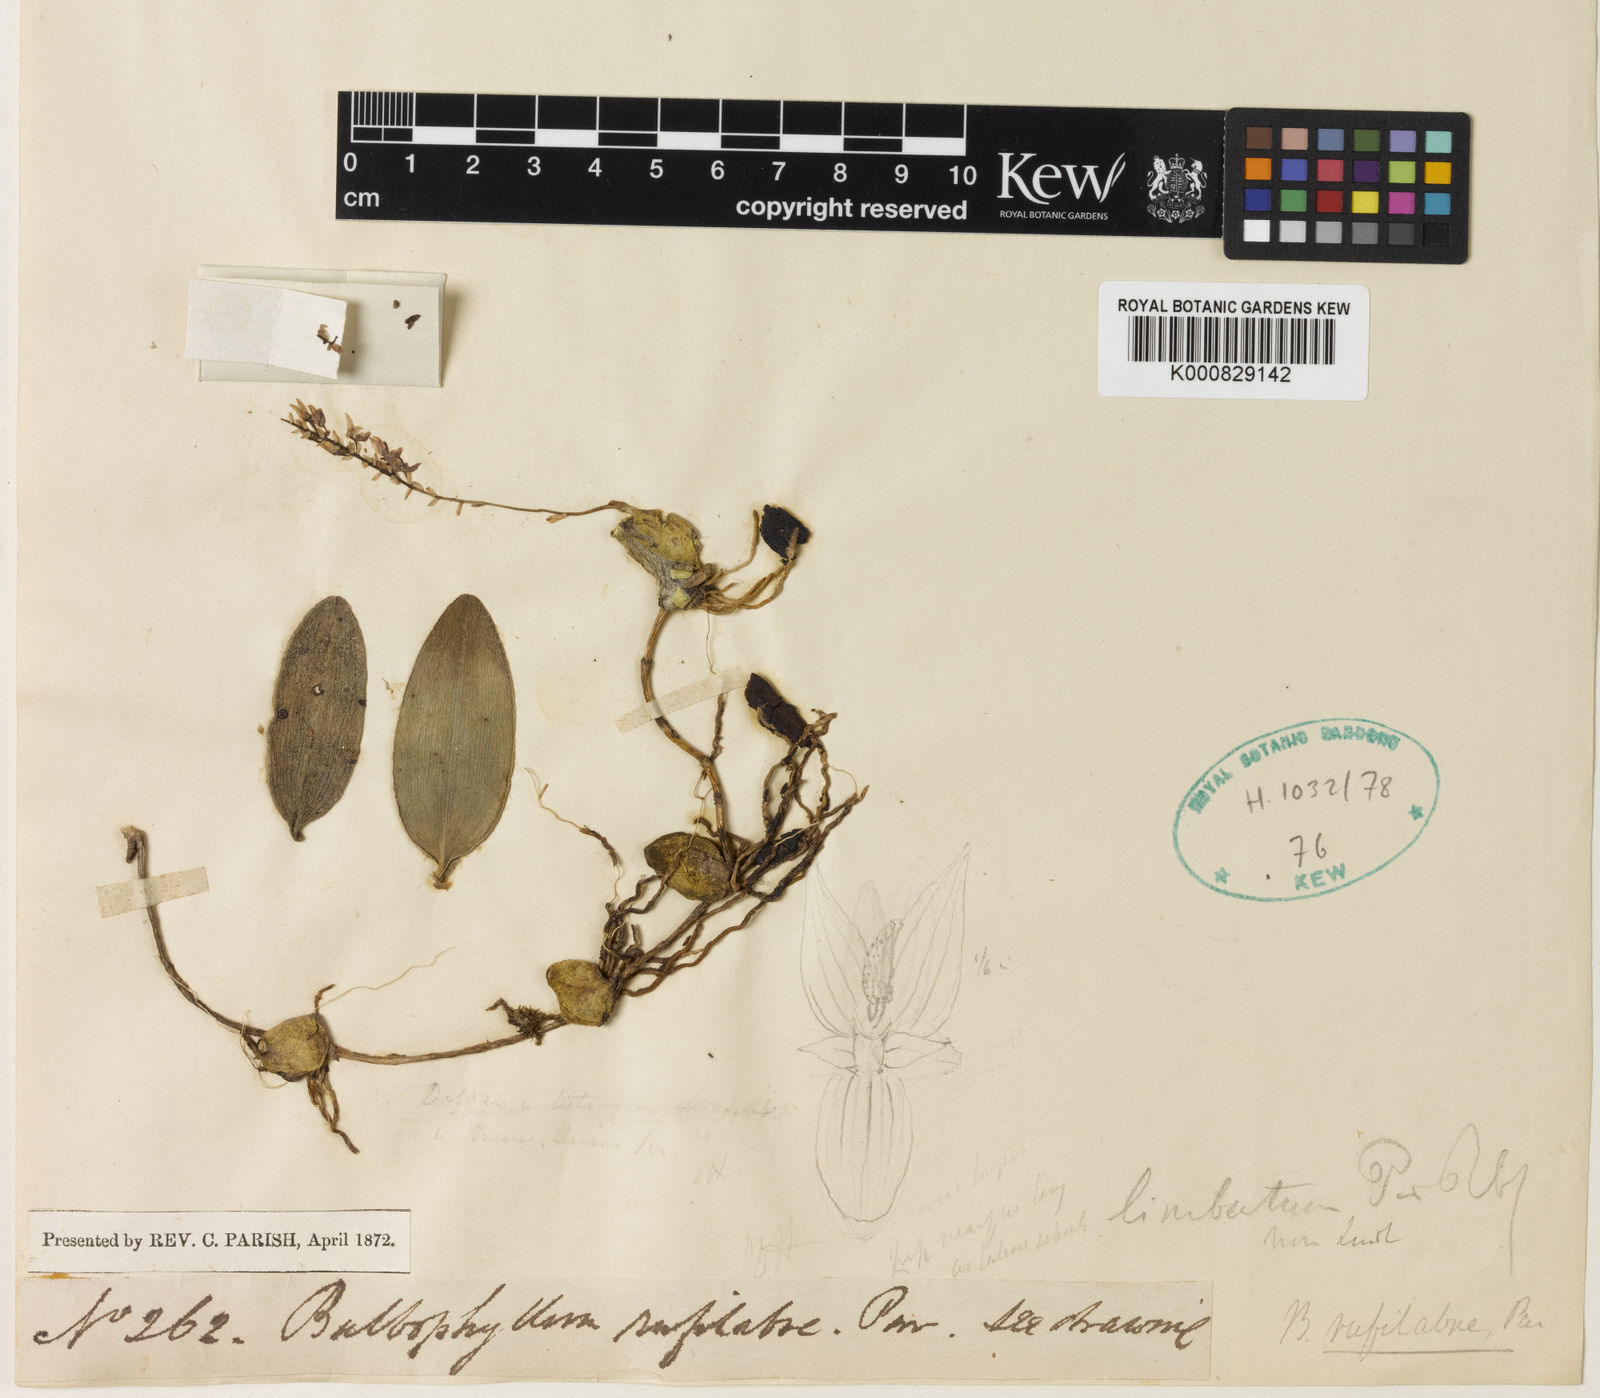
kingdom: Plantae
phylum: Tracheophyta
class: Liliopsida
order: Asparagales
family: Orchidaceae
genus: Bulbophyllum
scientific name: Bulbophyllum rufilabrum
